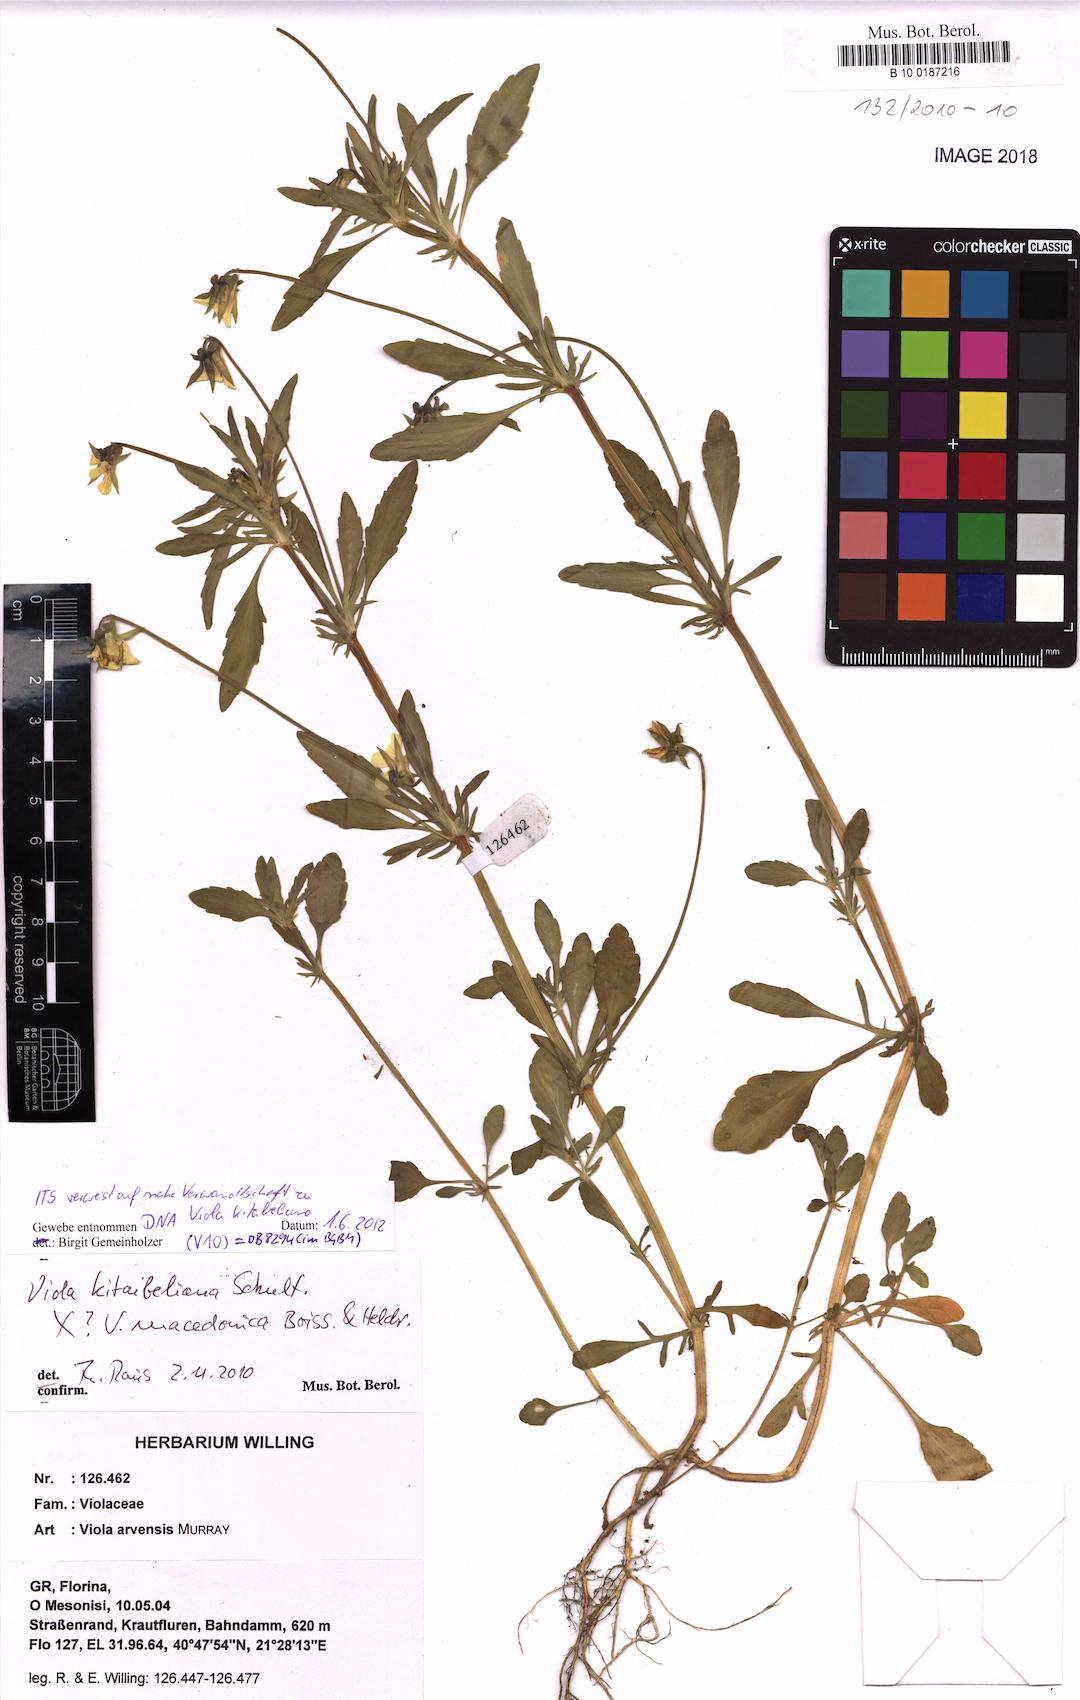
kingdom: Plantae
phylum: Tracheophyta
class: Magnoliopsida
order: Malpighiales
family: Violaceae
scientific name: Violaceae
